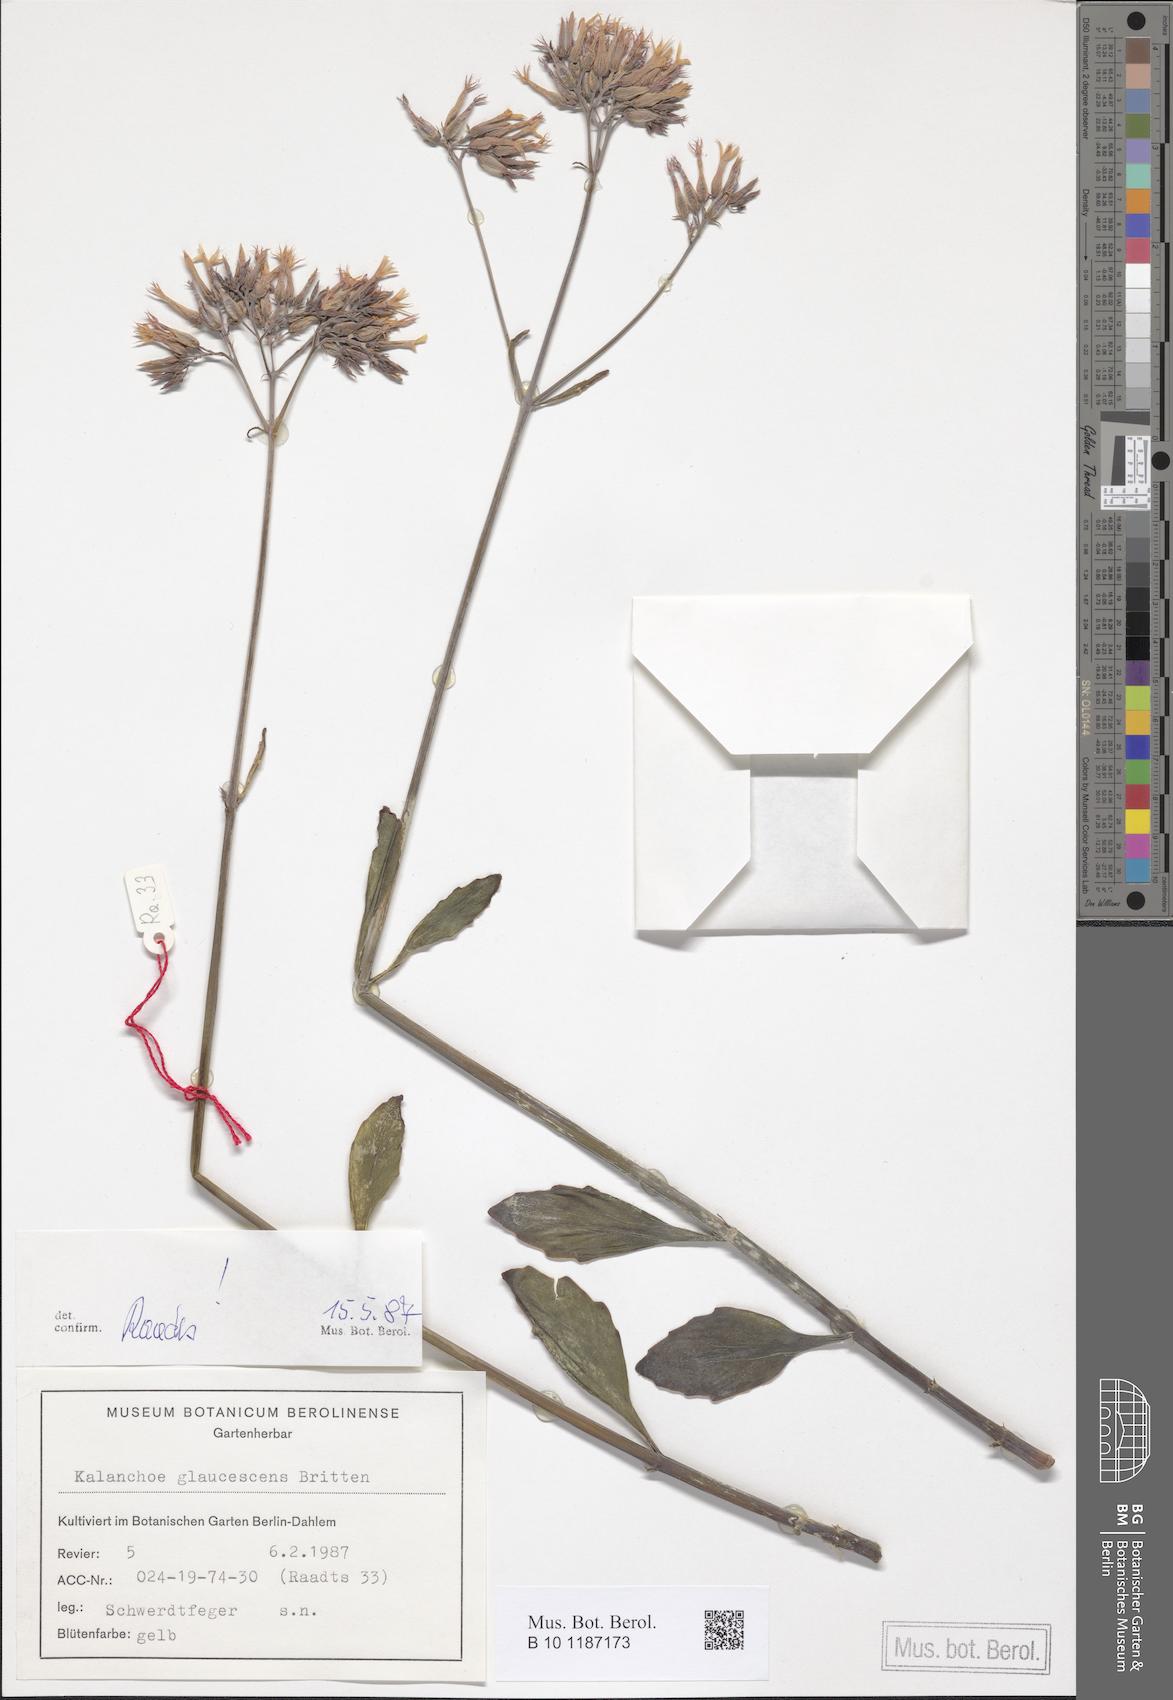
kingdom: Plantae
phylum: Tracheophyta
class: Magnoliopsida
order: Saxifragales
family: Crassulaceae
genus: Kalanchoe
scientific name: Kalanchoe glaucescens
